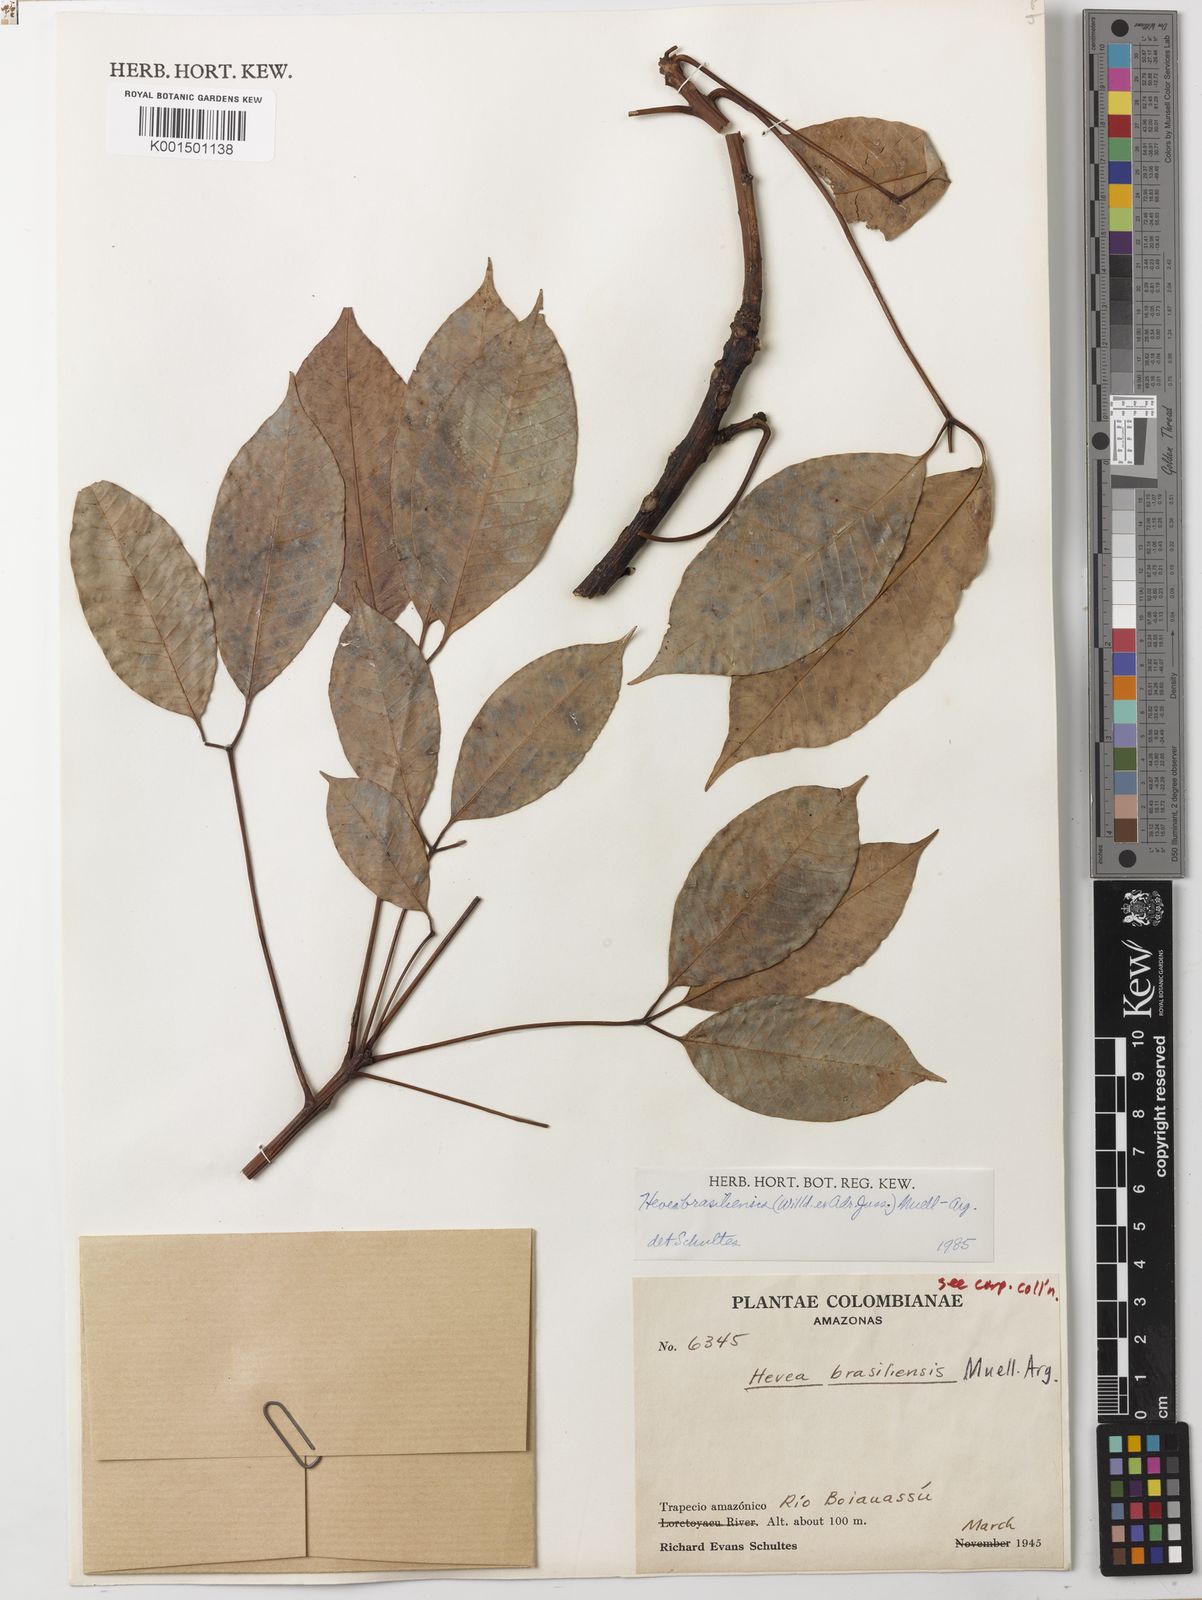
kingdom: Plantae
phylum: Tracheophyta
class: Magnoliopsida
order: Malpighiales
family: Euphorbiaceae
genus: Hevea
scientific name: Hevea brasiliensis
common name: Natural rubber
